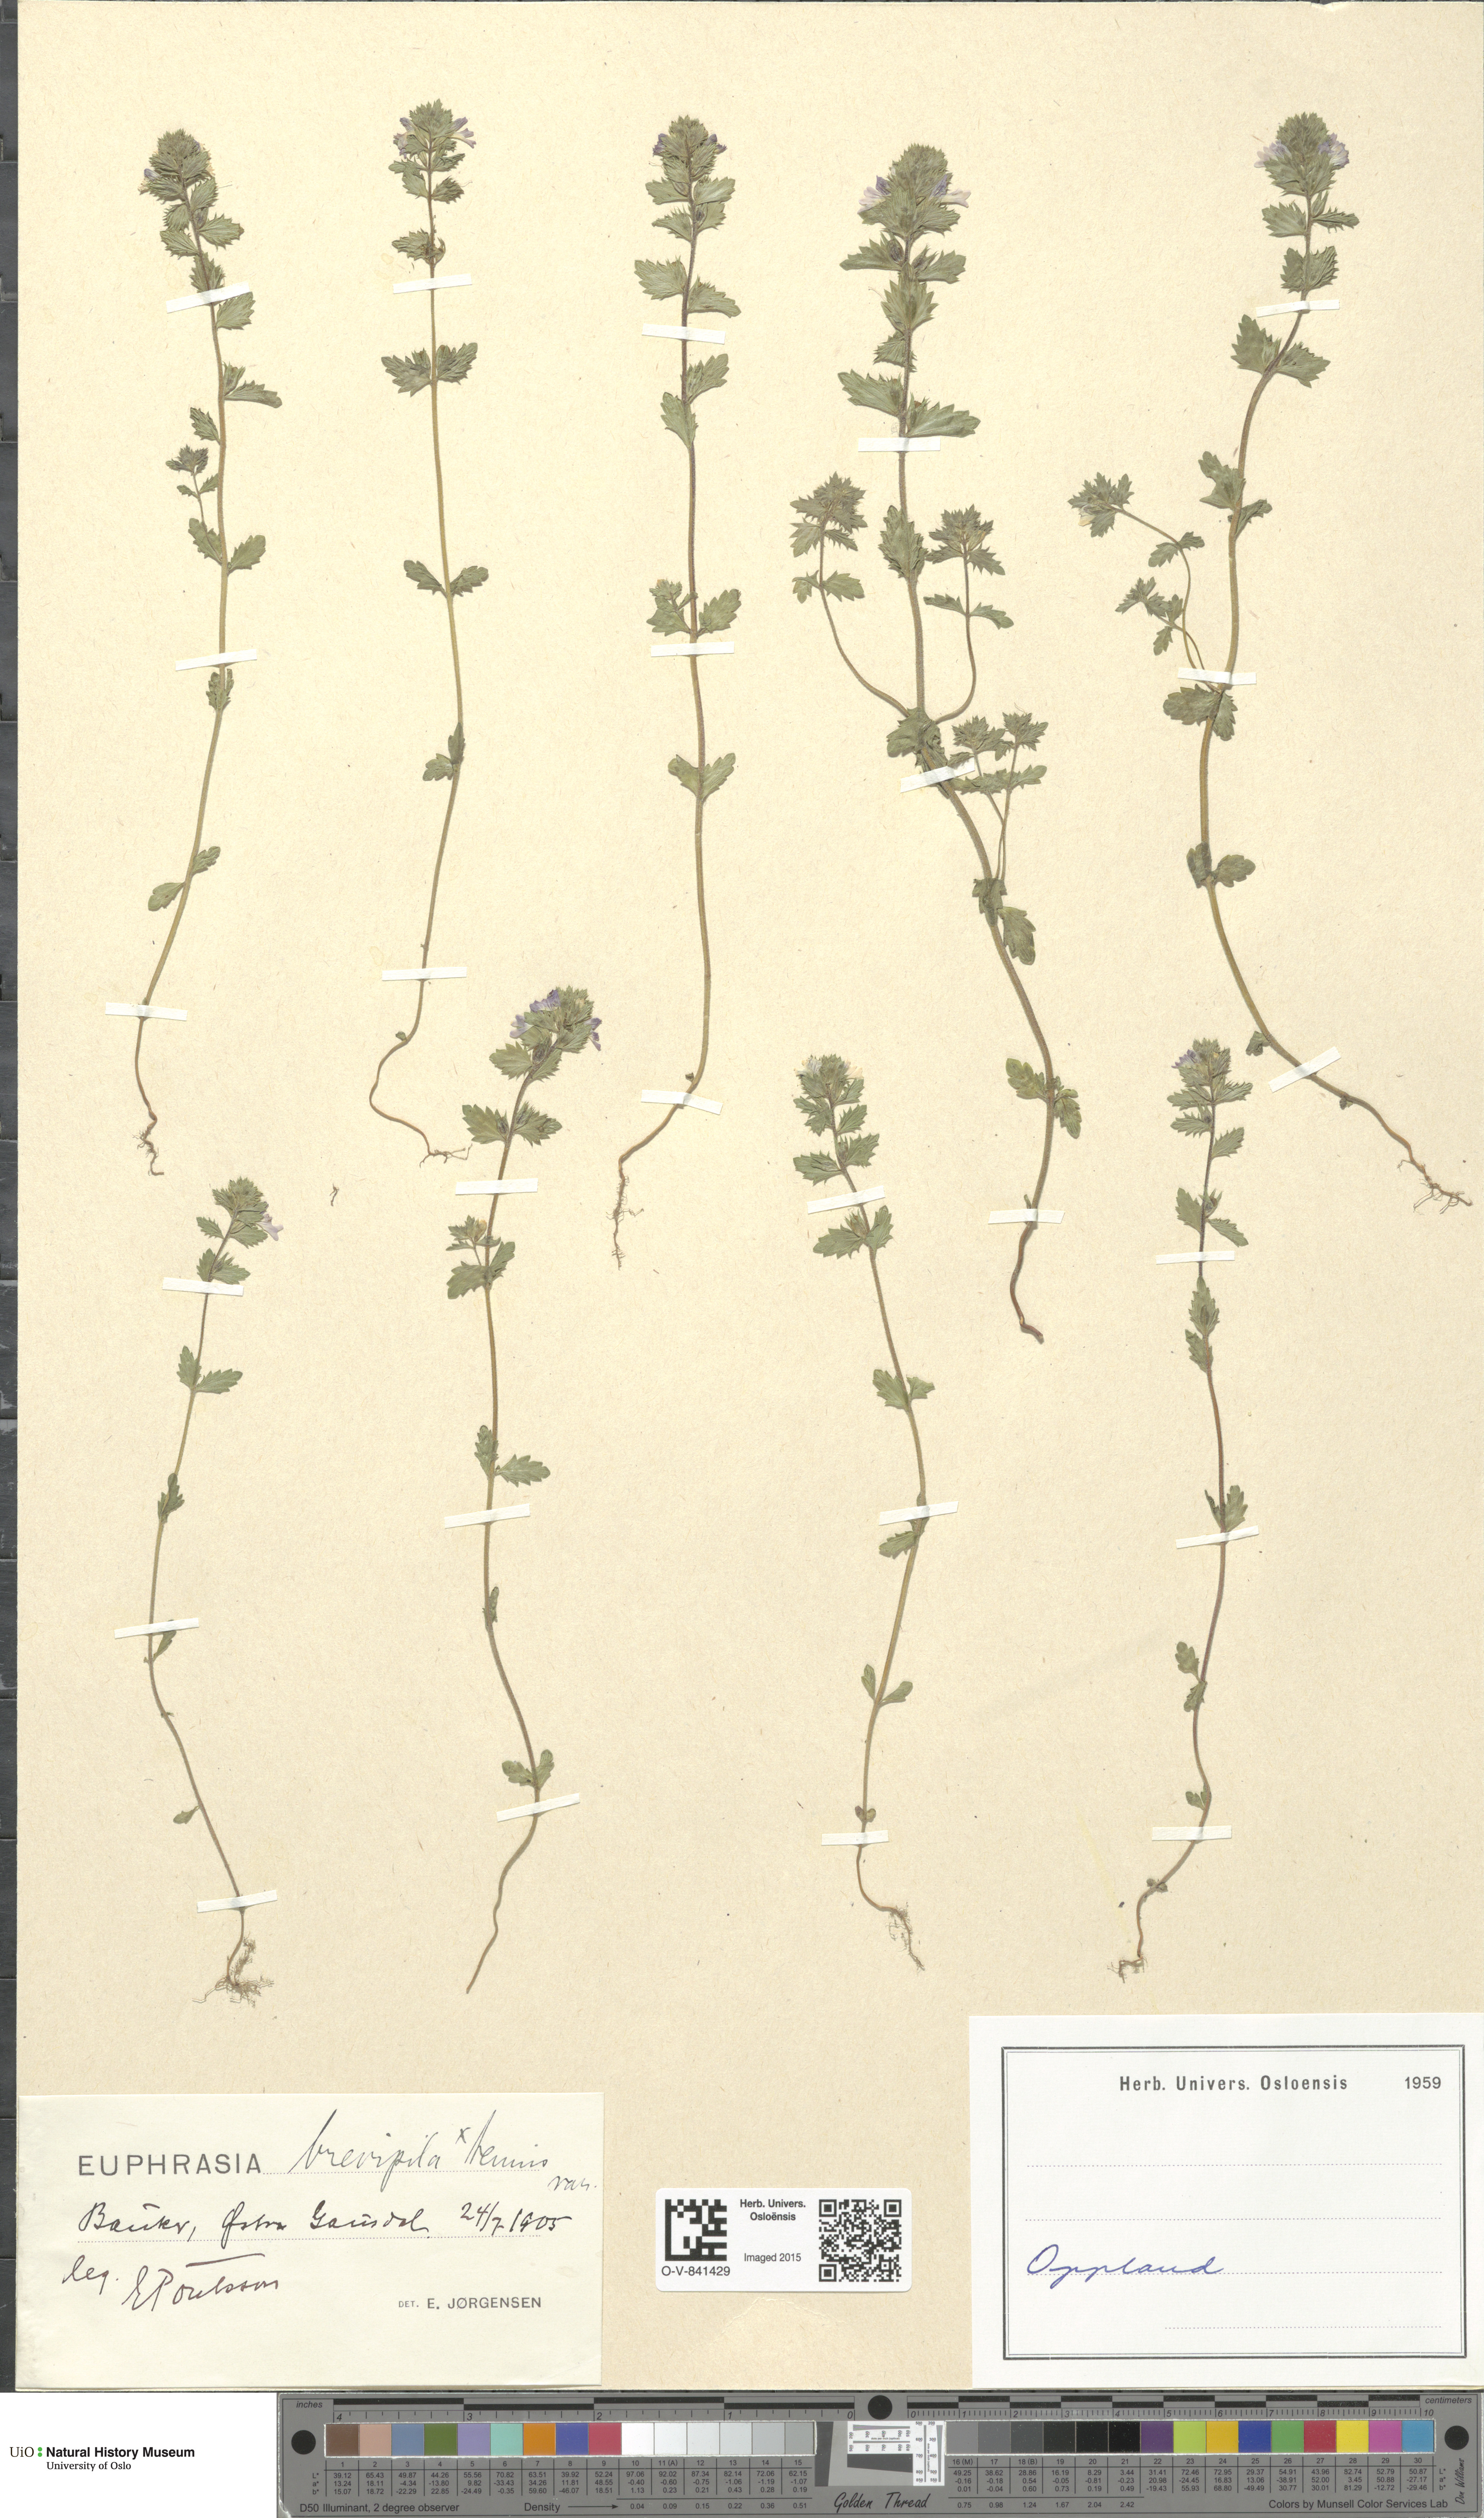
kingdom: Plantae
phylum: Tracheophyta
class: Magnoliopsida
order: Lamiales
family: Orobanchaceae
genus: Euphrasia
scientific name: Euphrasia vernalis
